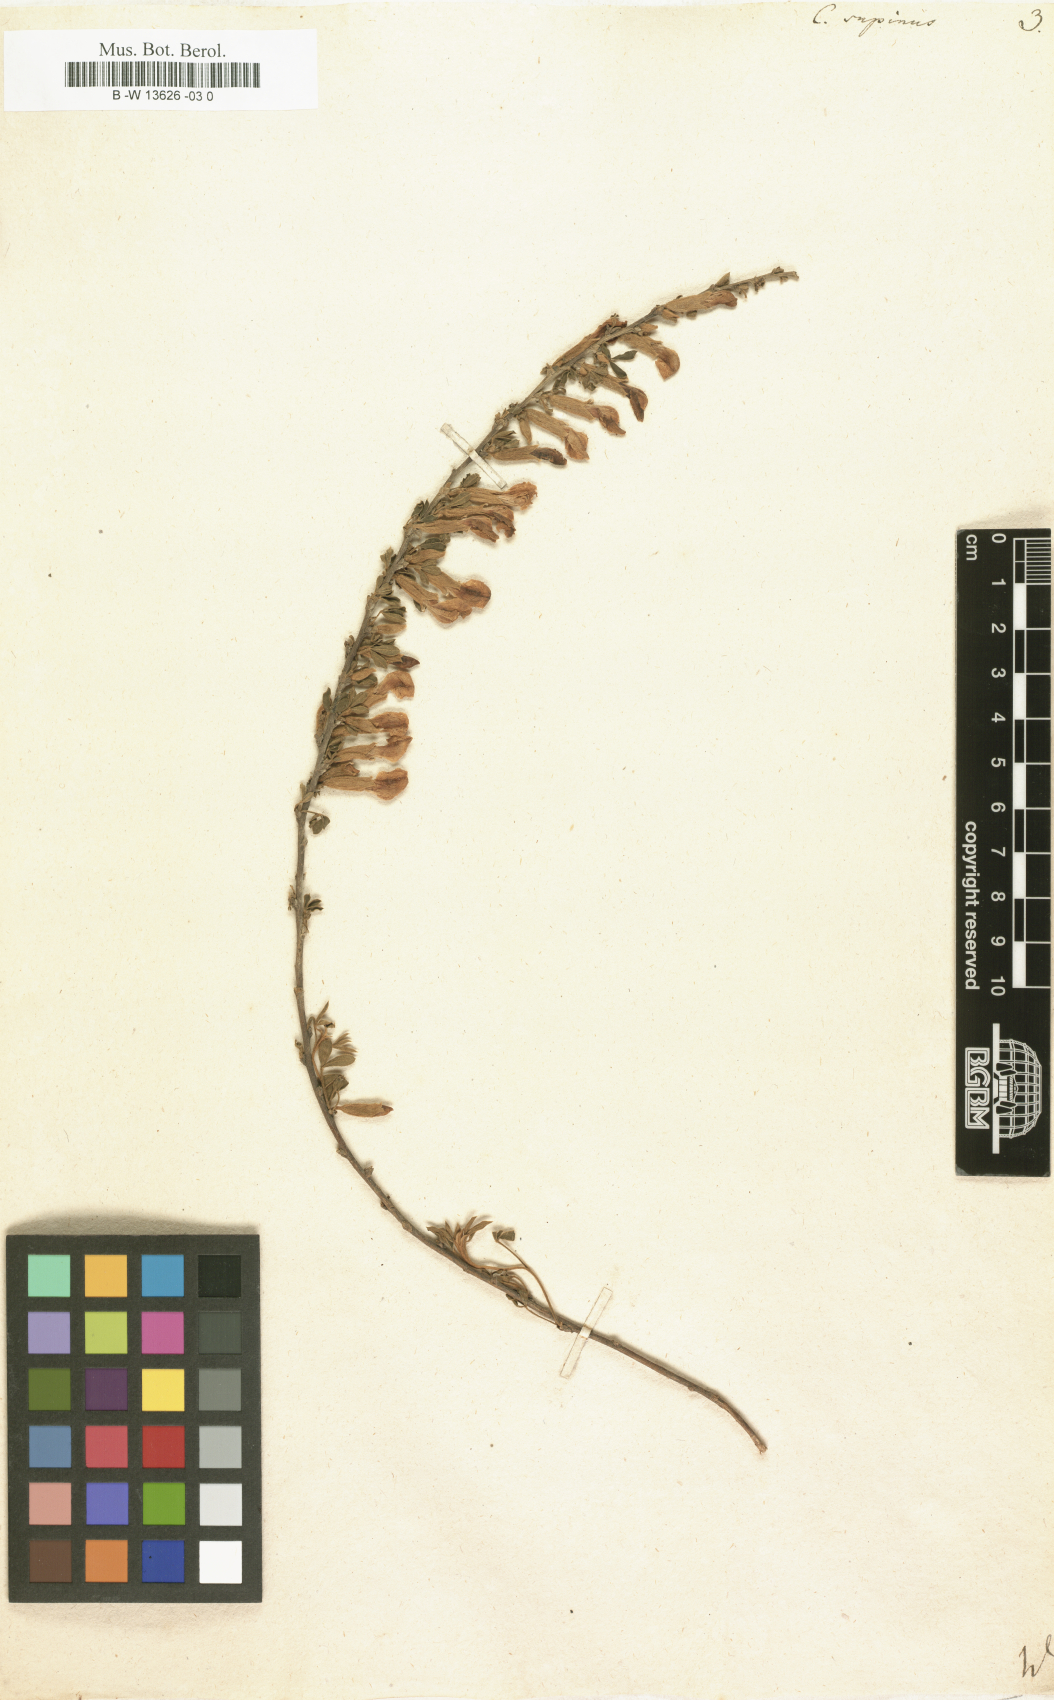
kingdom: Plantae
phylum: Tracheophyta
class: Magnoliopsida
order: Fabales
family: Fabaceae
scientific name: Fabaceae
